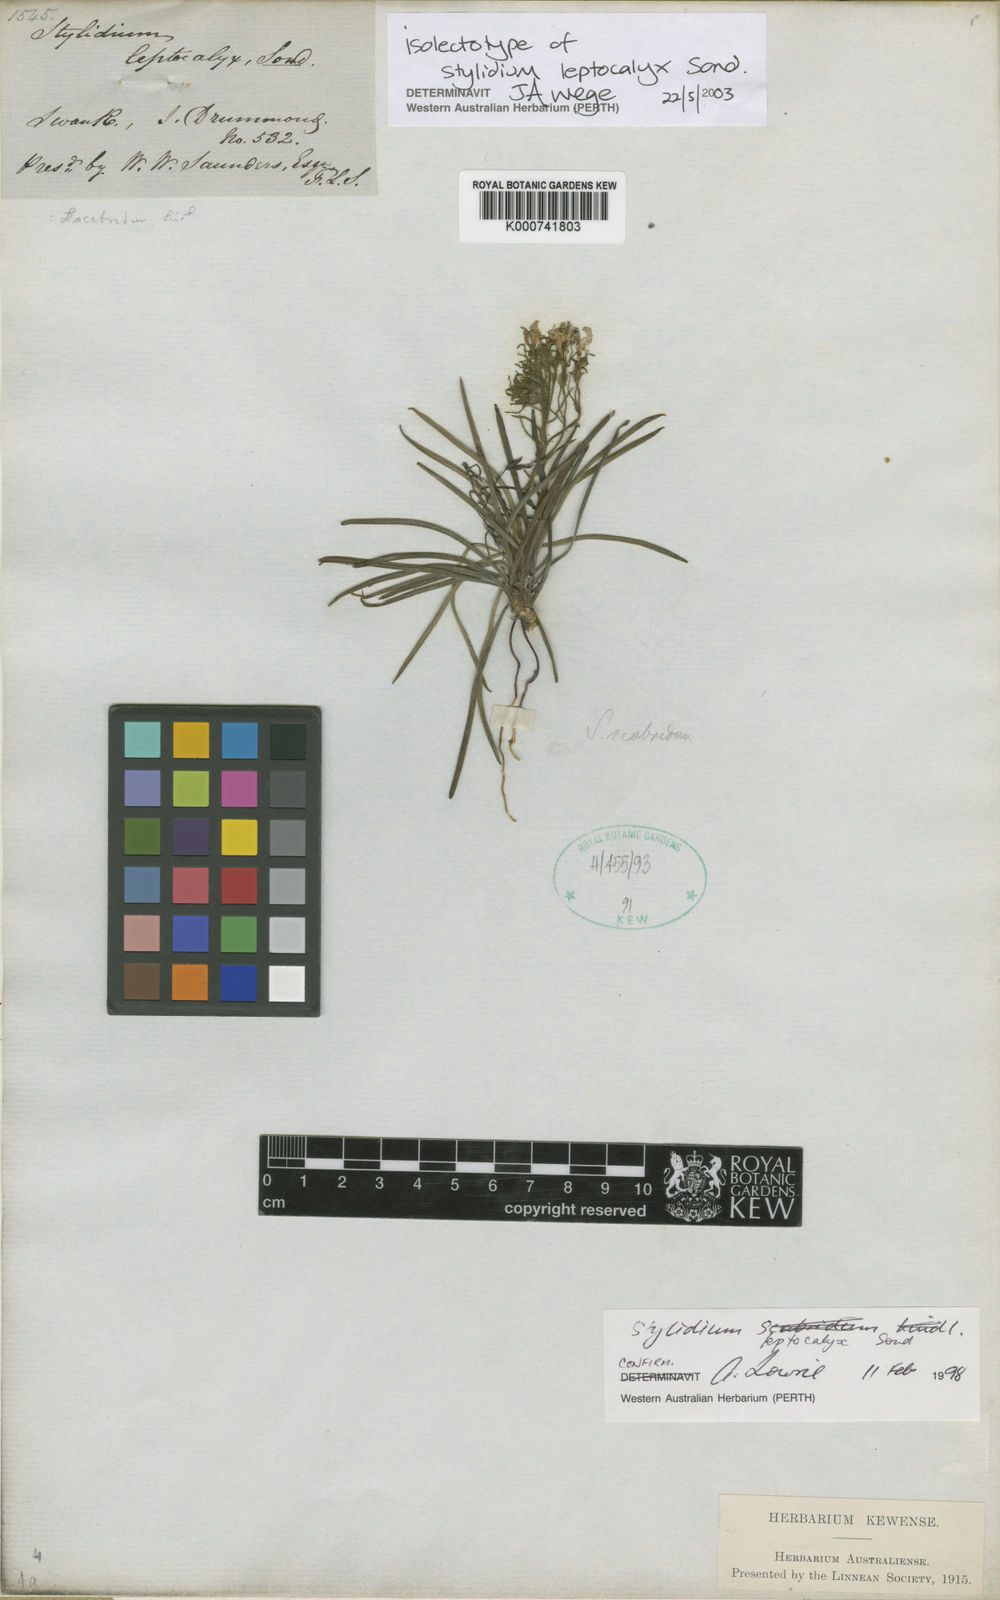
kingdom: Plantae
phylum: Tracheophyta
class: Magnoliopsida
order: Asterales
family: Stylidiaceae
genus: Stylidium
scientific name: Stylidium leptocalyx
